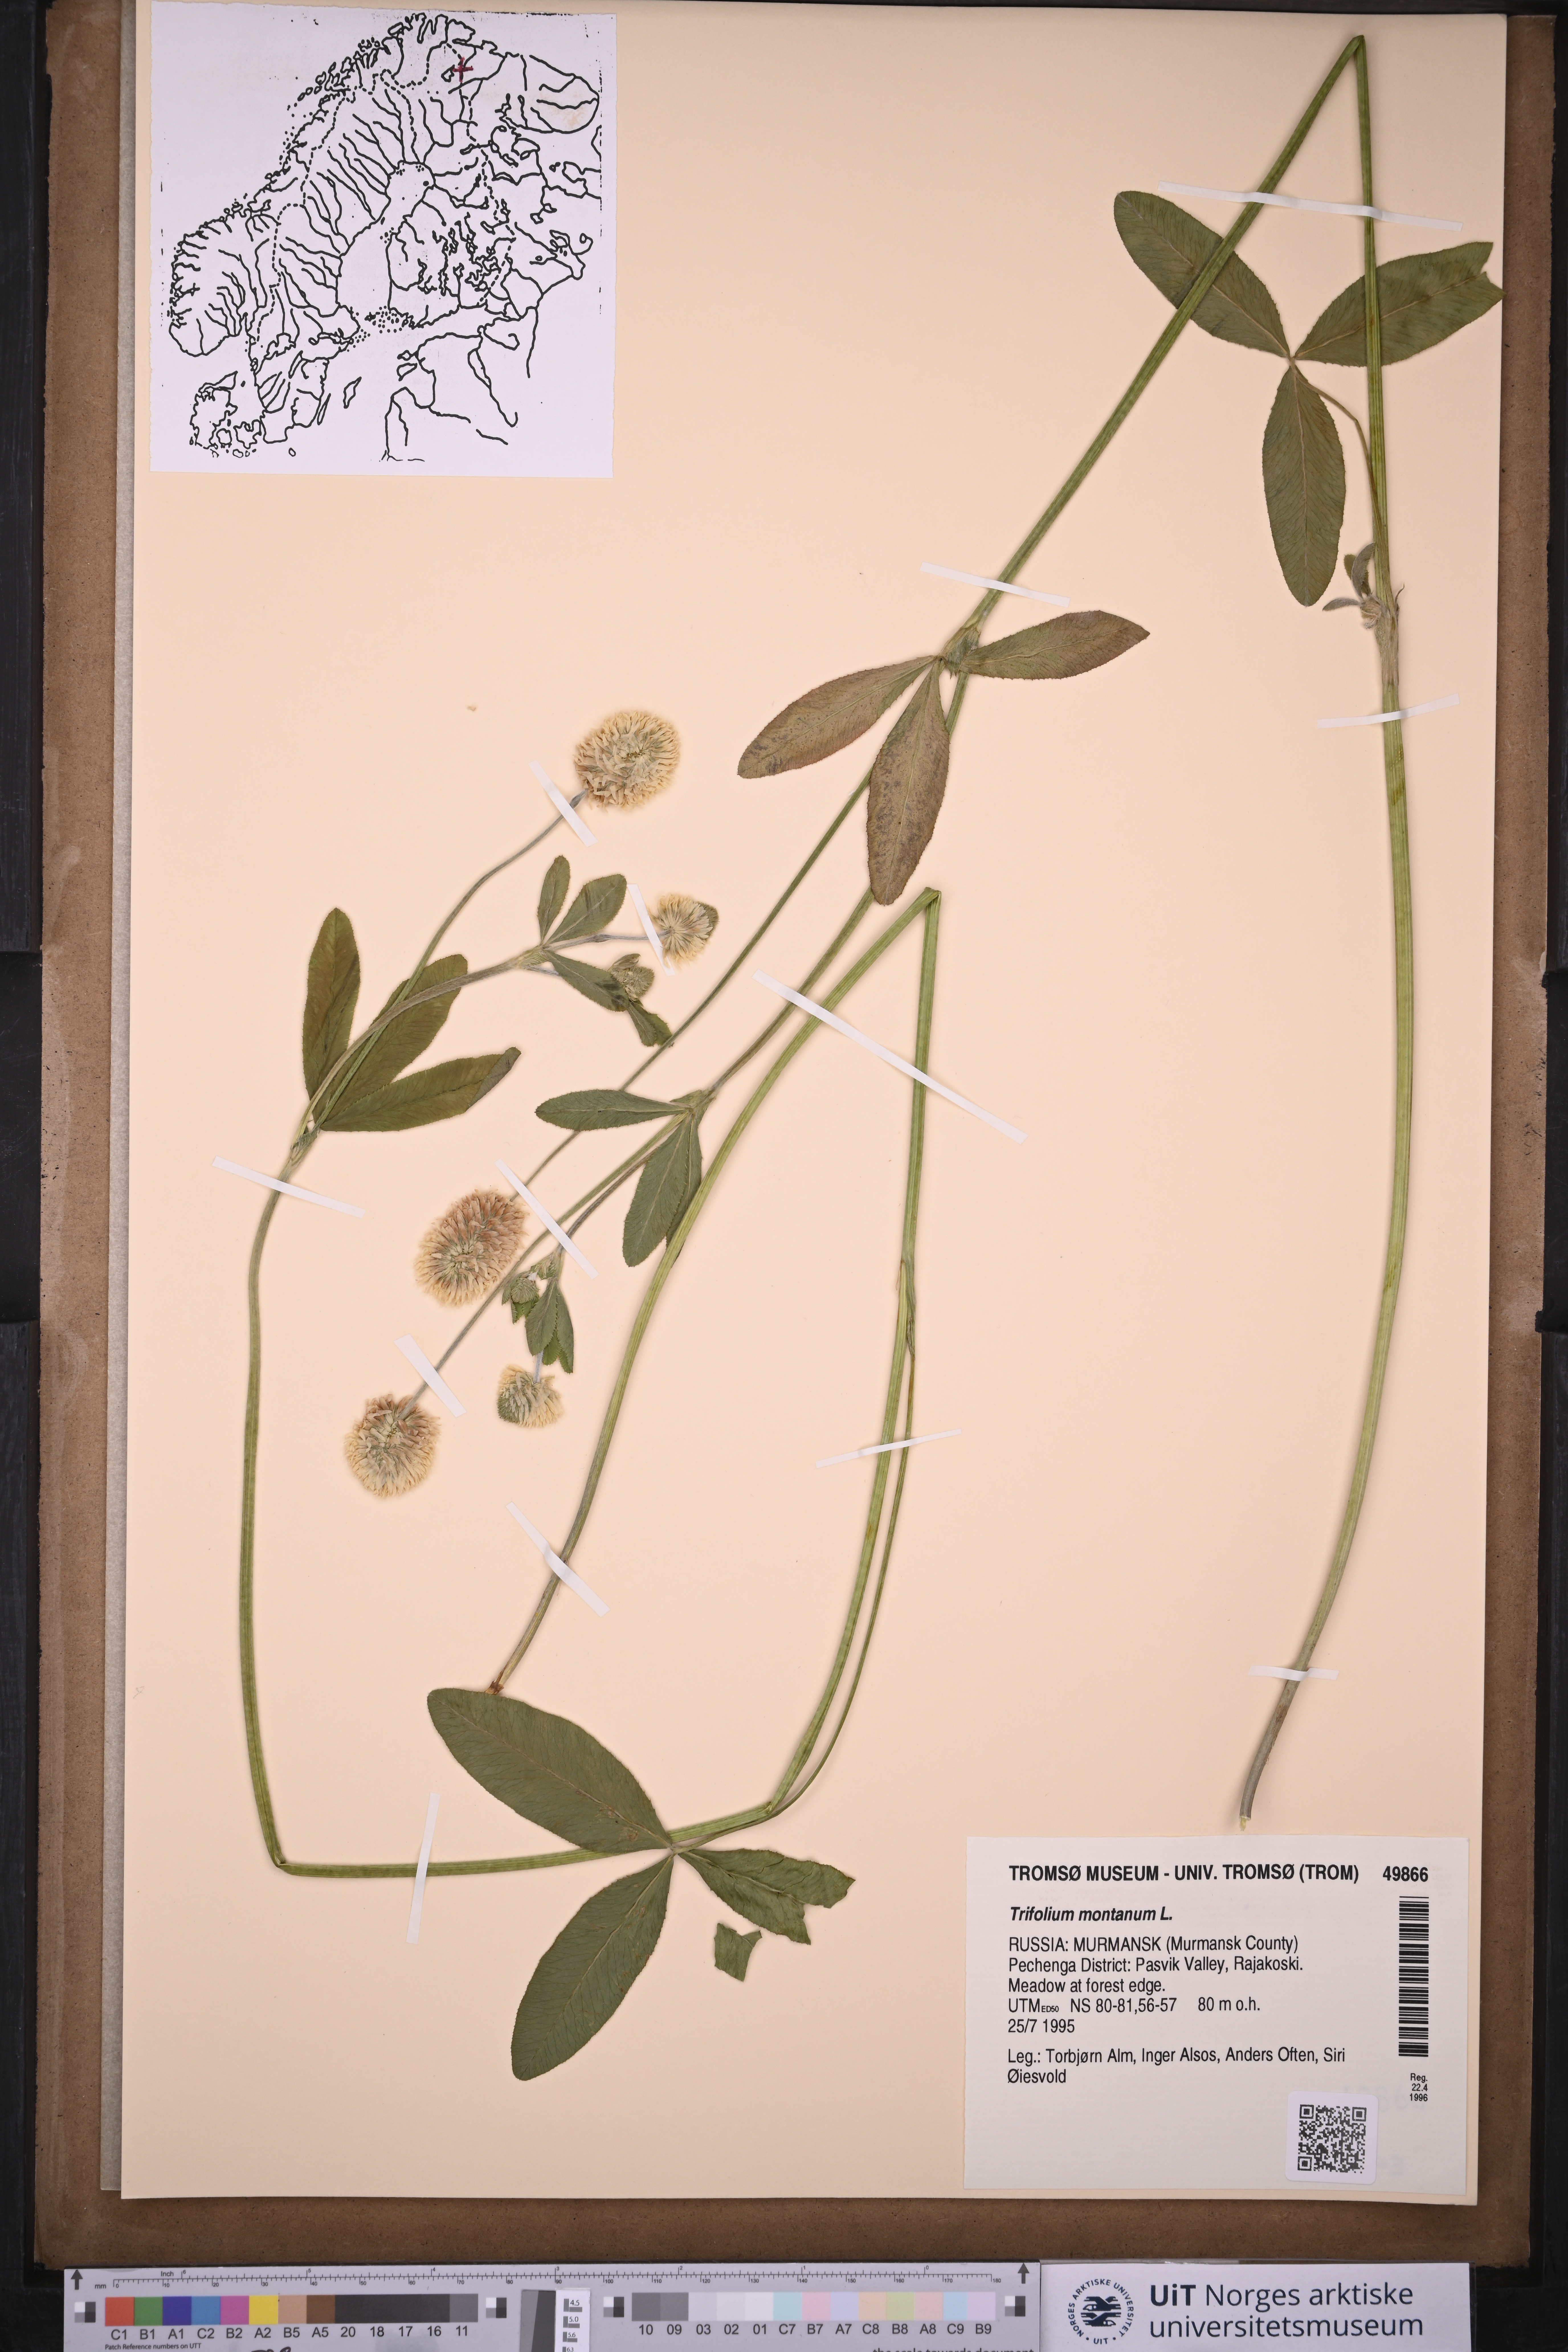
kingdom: Plantae
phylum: Tracheophyta
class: Magnoliopsida
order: Fabales
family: Fabaceae
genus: Trifolium
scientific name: Trifolium montanum
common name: Mountain clover
